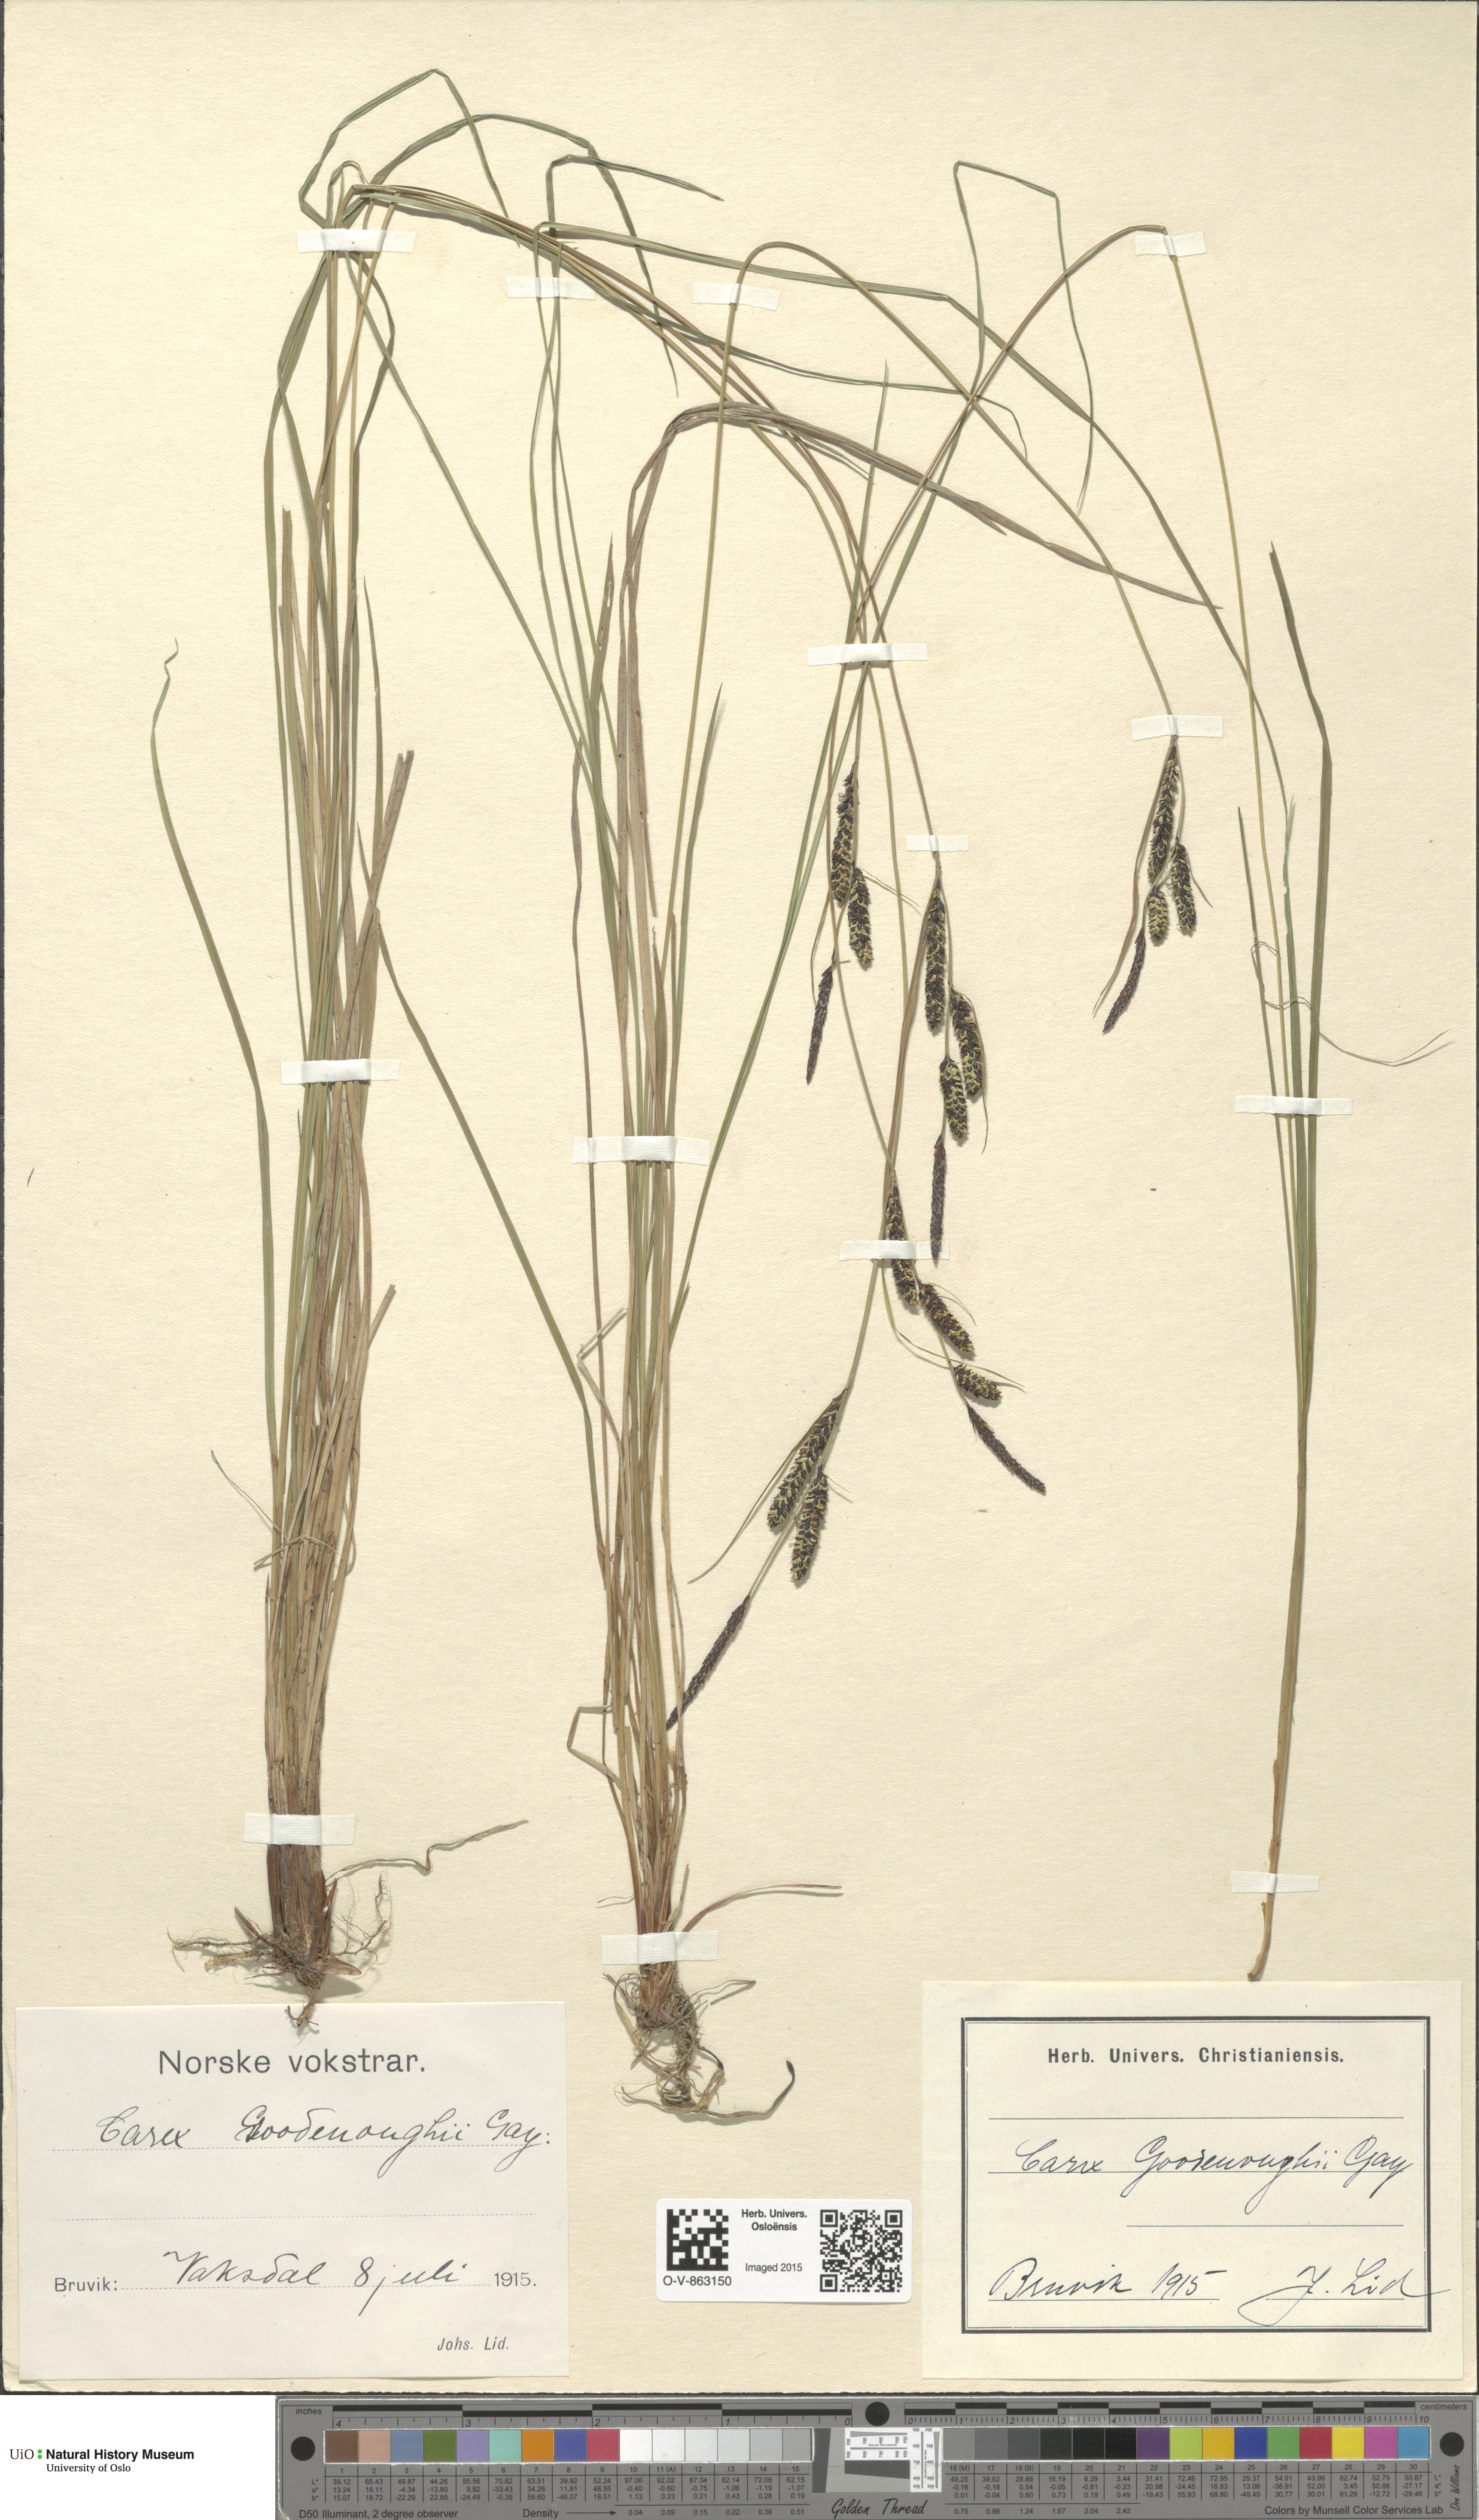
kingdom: Plantae
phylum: Tracheophyta
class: Liliopsida
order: Poales
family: Cyperaceae
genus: Carex
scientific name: Carex nigra
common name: Common sedge
